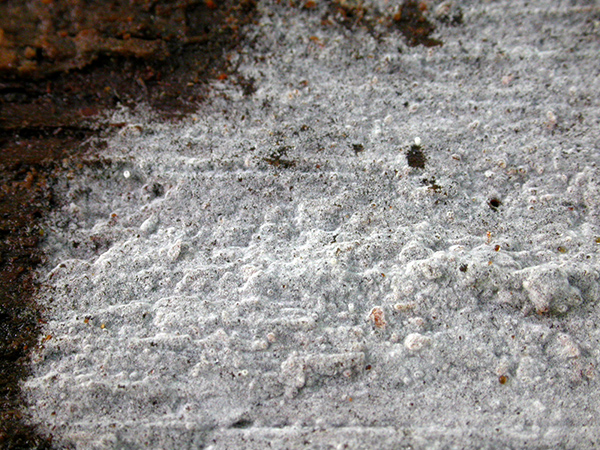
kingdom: Fungi
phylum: Basidiomycota
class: Agaricomycetes
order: Cantharellales
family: Botryobasidiaceae
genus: Botryobasidium
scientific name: Botryobasidium subcoronatum
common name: almindelig spindhinde
